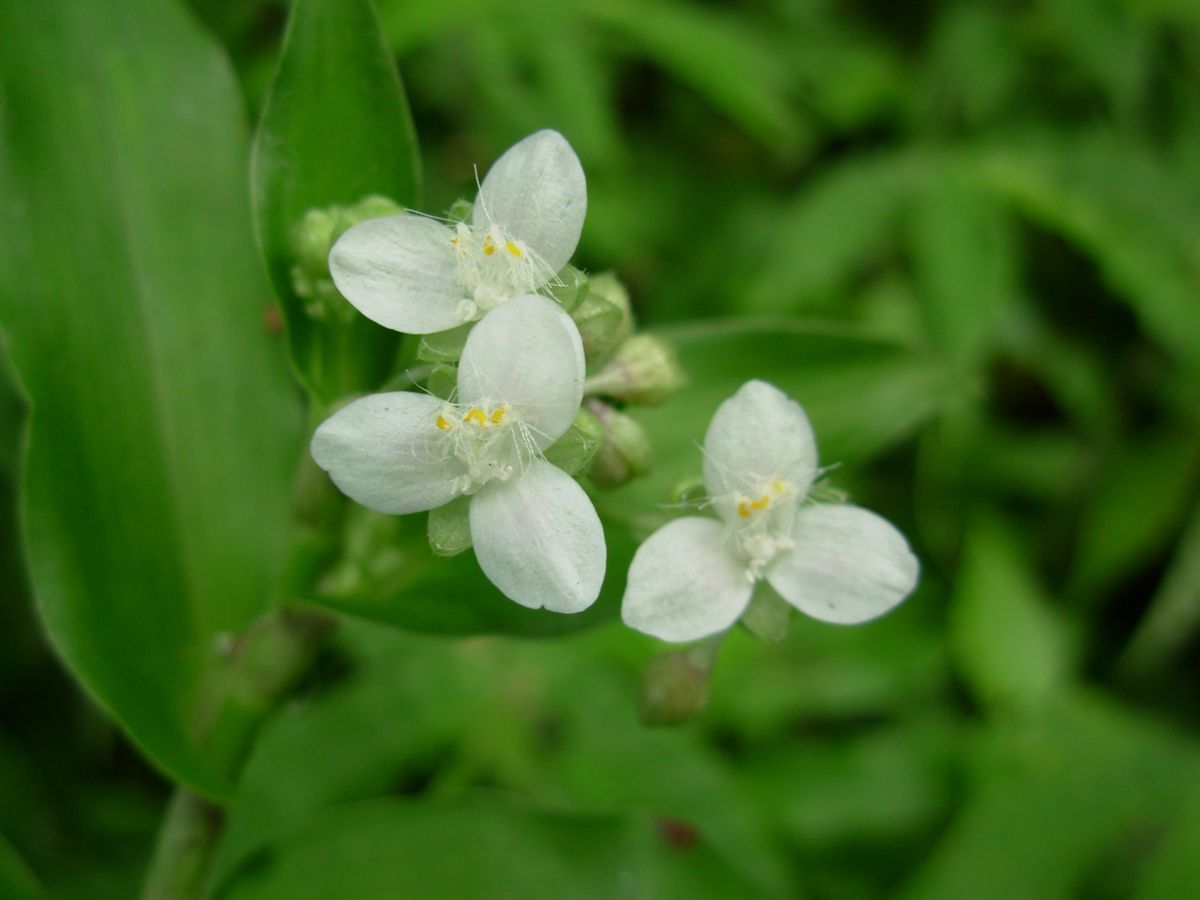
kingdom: Plantae
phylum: Tracheophyta
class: Liliopsida
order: Commelinales
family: Commelinaceae
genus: Elasis
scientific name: Elasis guatemalensis
